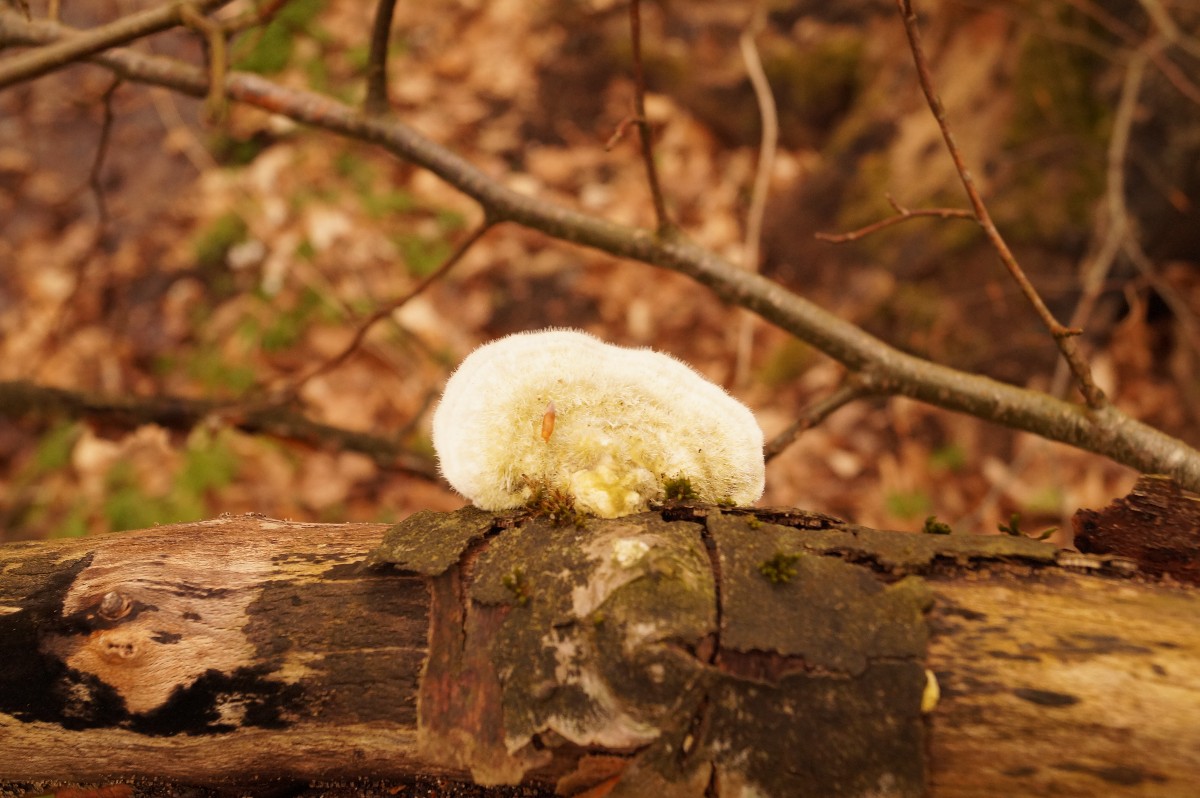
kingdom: Fungi
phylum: Basidiomycota
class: Agaricomycetes
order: Polyporales
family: Polyporaceae
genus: Trametes
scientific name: Trametes hirsuta
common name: håret læderporesvamp
